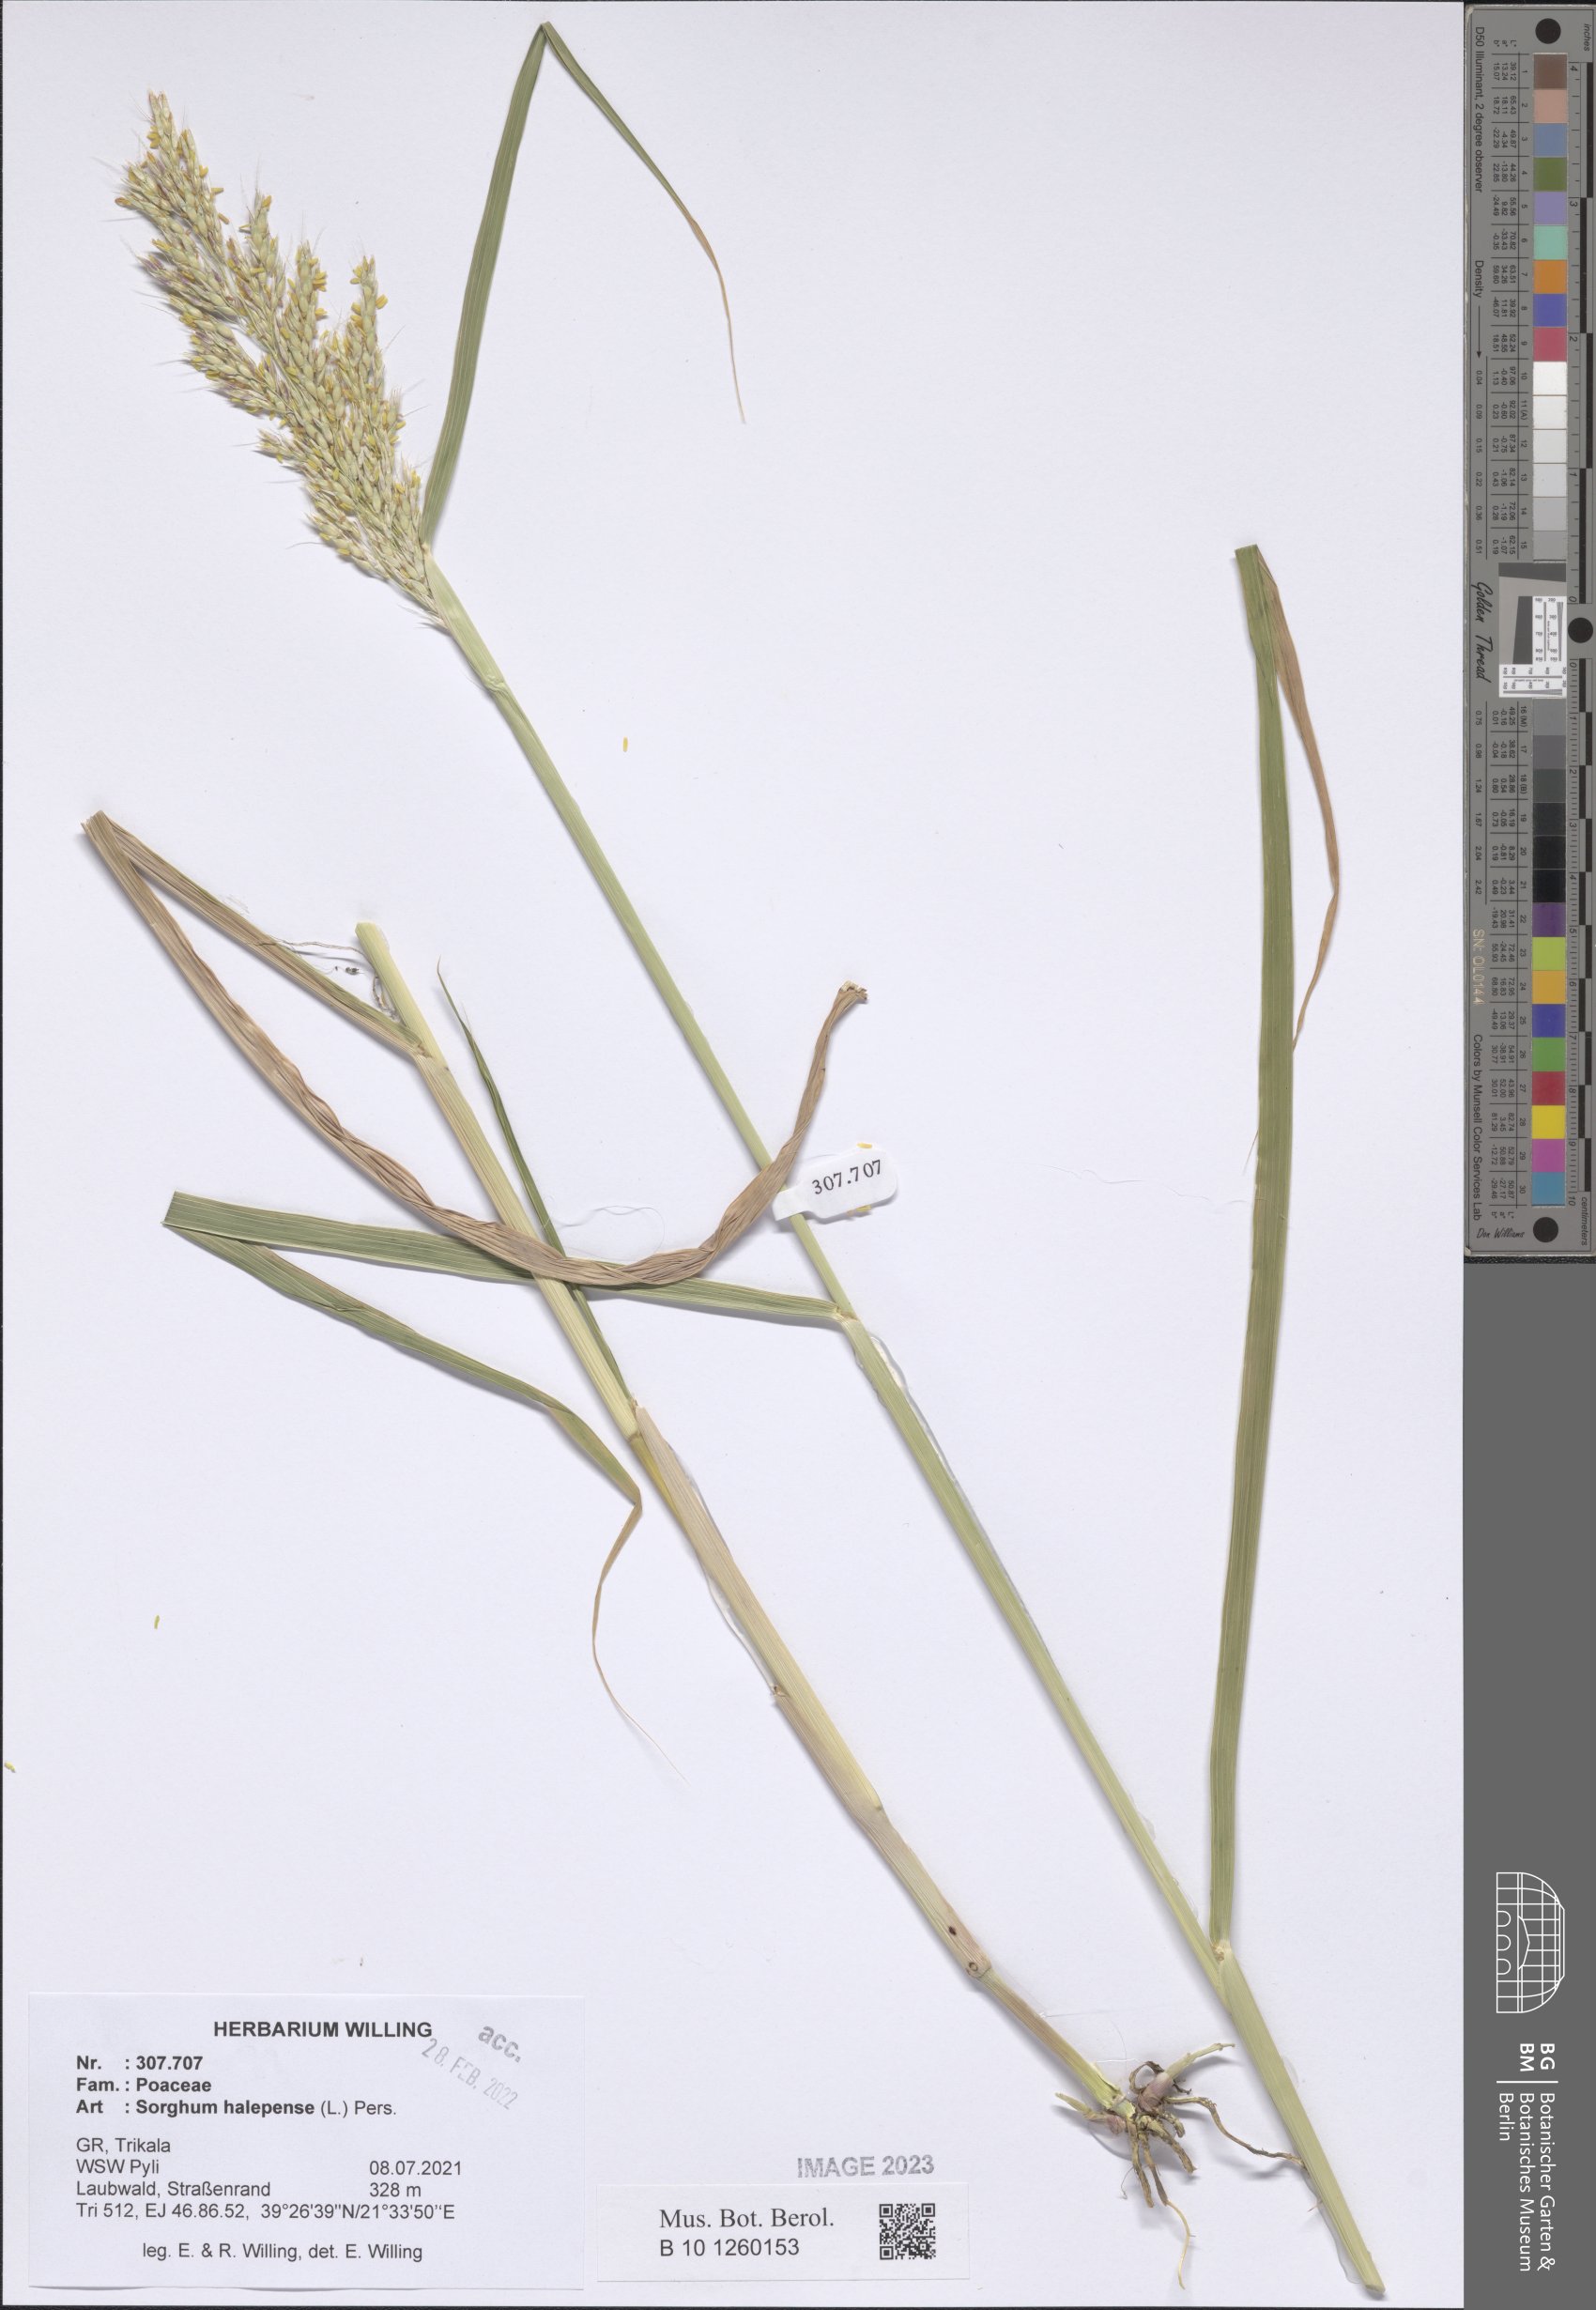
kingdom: Plantae
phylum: Tracheophyta
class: Liliopsida
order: Poales
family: Poaceae
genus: Sorghum
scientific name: Sorghum halepense
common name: Johnson-grass
